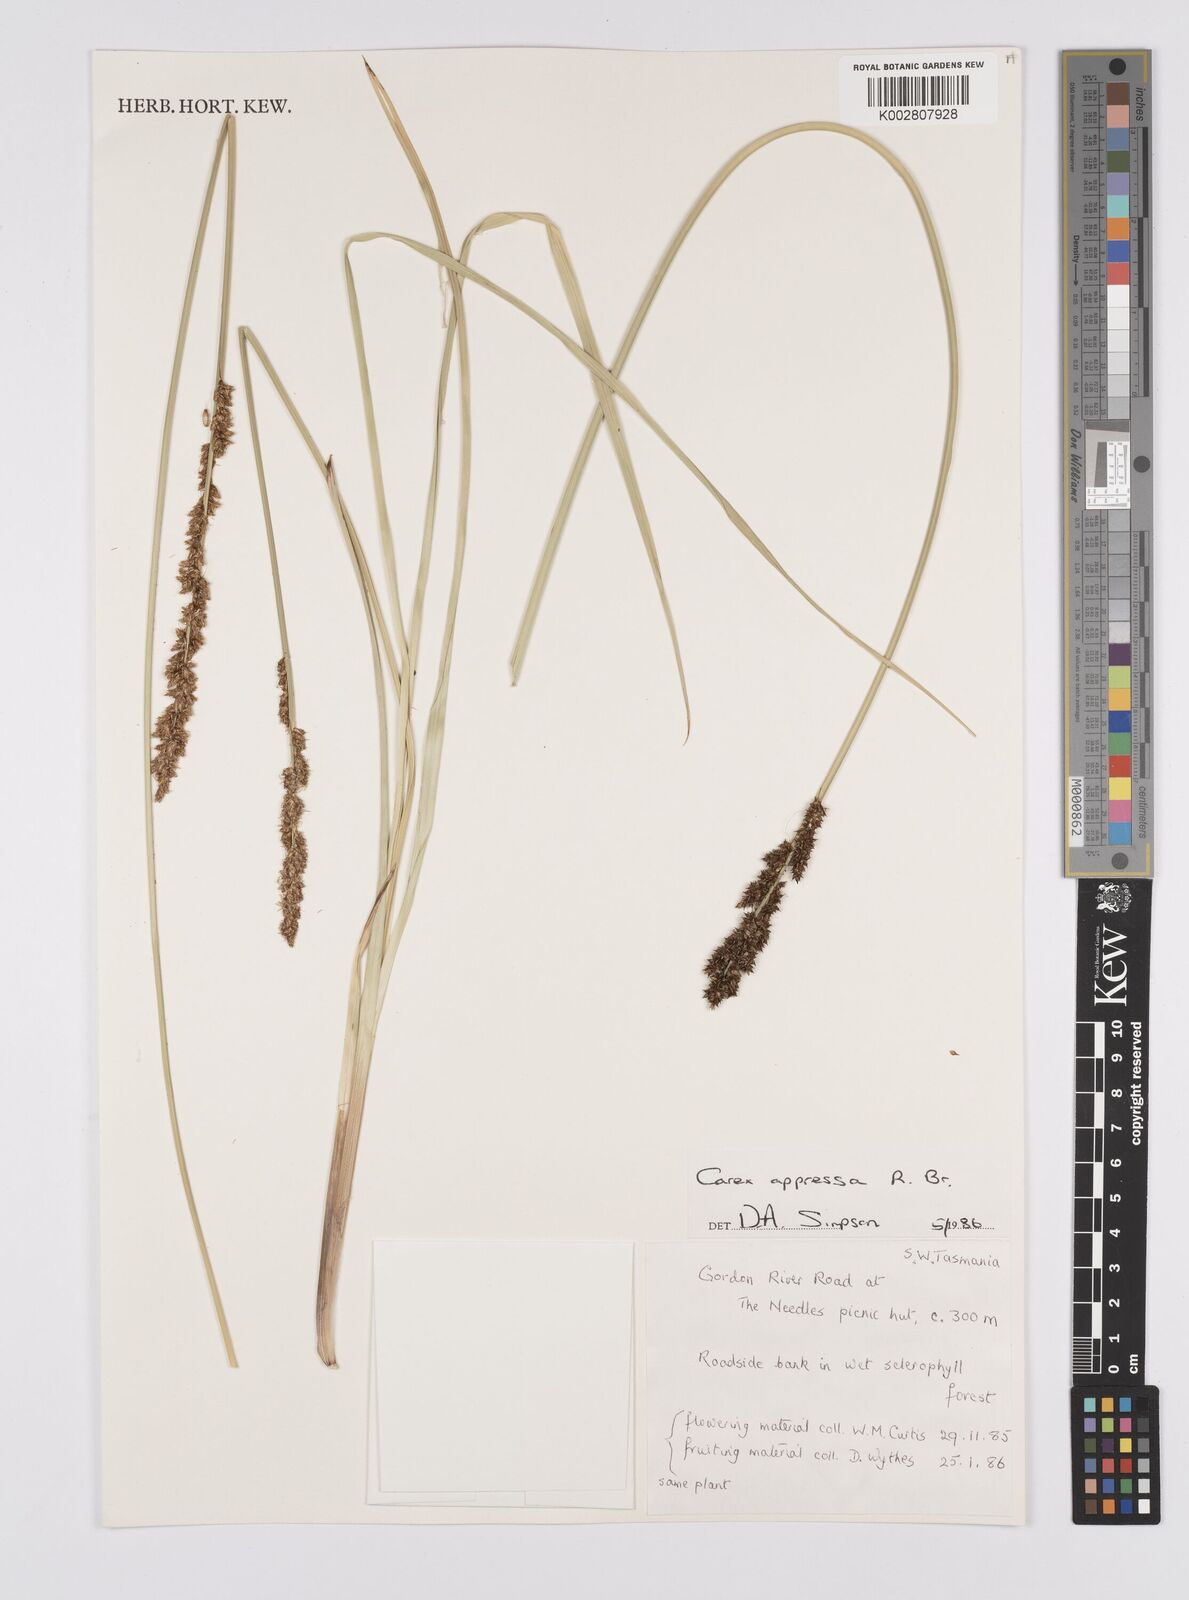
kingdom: Plantae
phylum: Tracheophyta
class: Liliopsida
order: Poales
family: Cyperaceae
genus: Carex
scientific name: Carex appressa
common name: Tussock sedge
